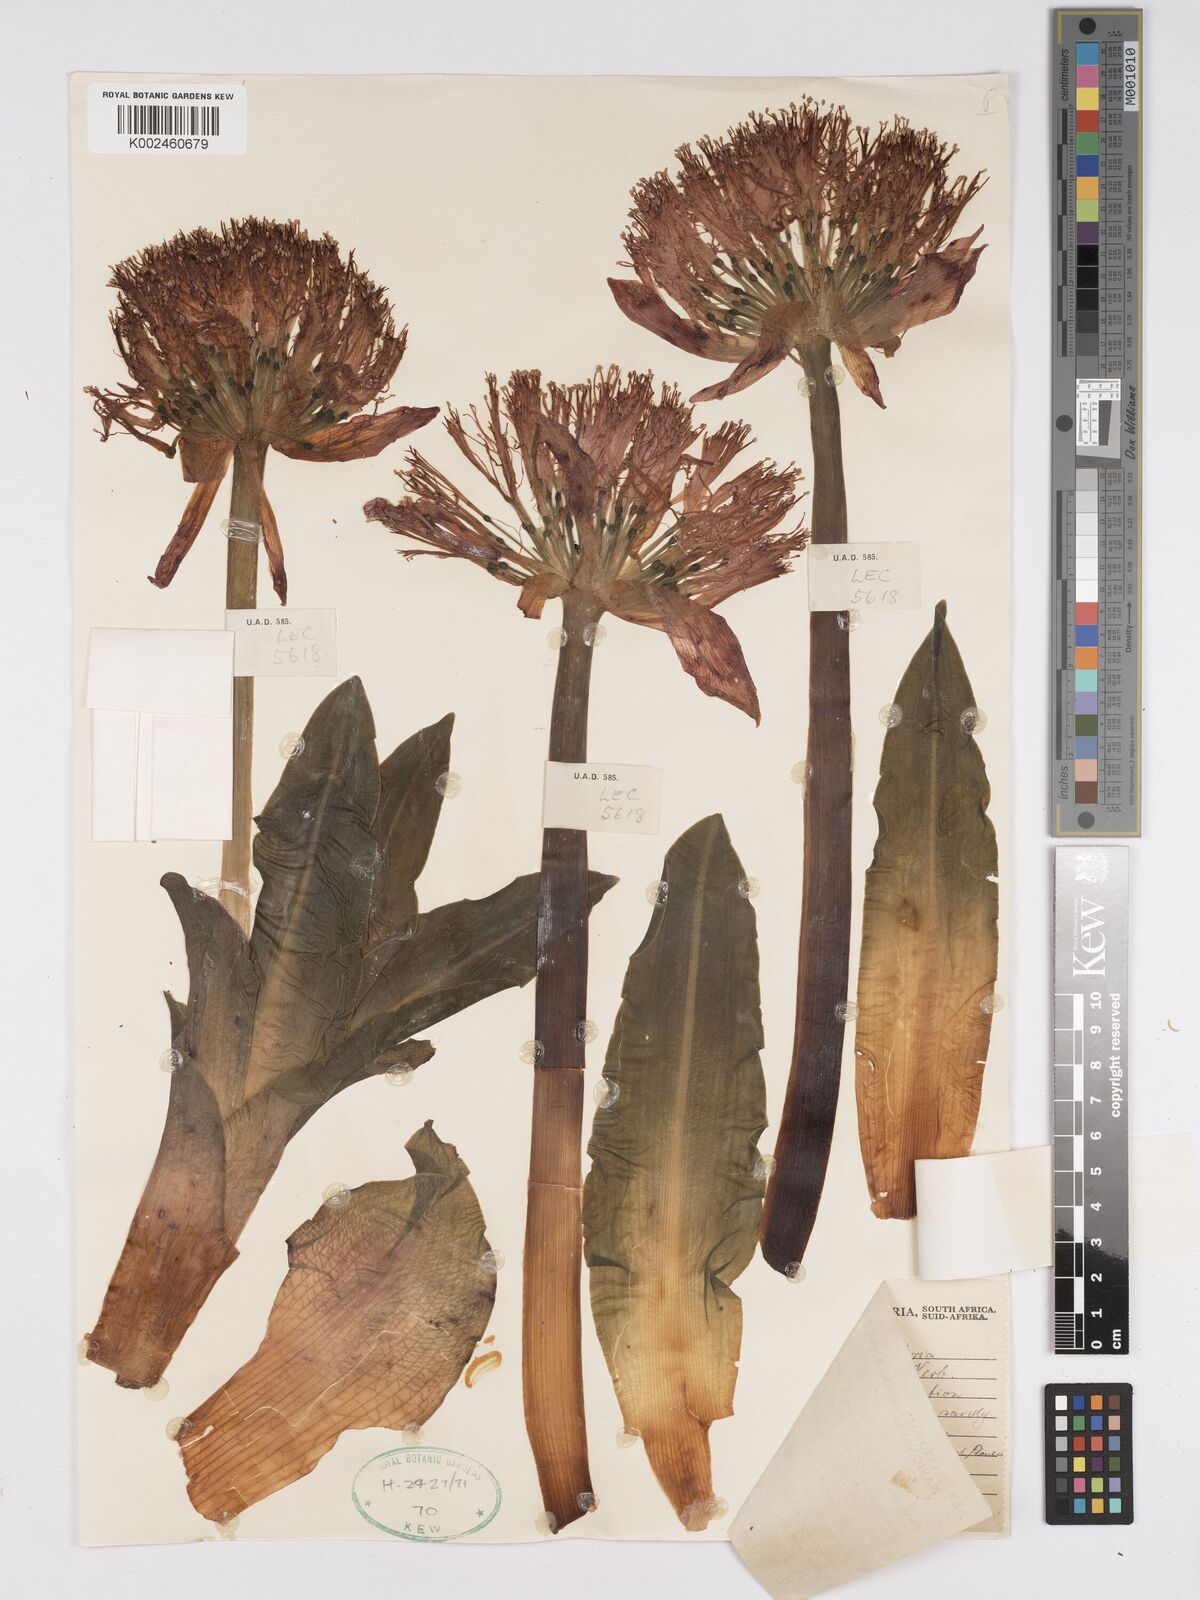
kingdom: Plantae
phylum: Tracheophyta
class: Liliopsida
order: Asparagales
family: Amaryllidaceae
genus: Scadoxus
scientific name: Scadoxus puniceus
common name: Royal-paintbrush
